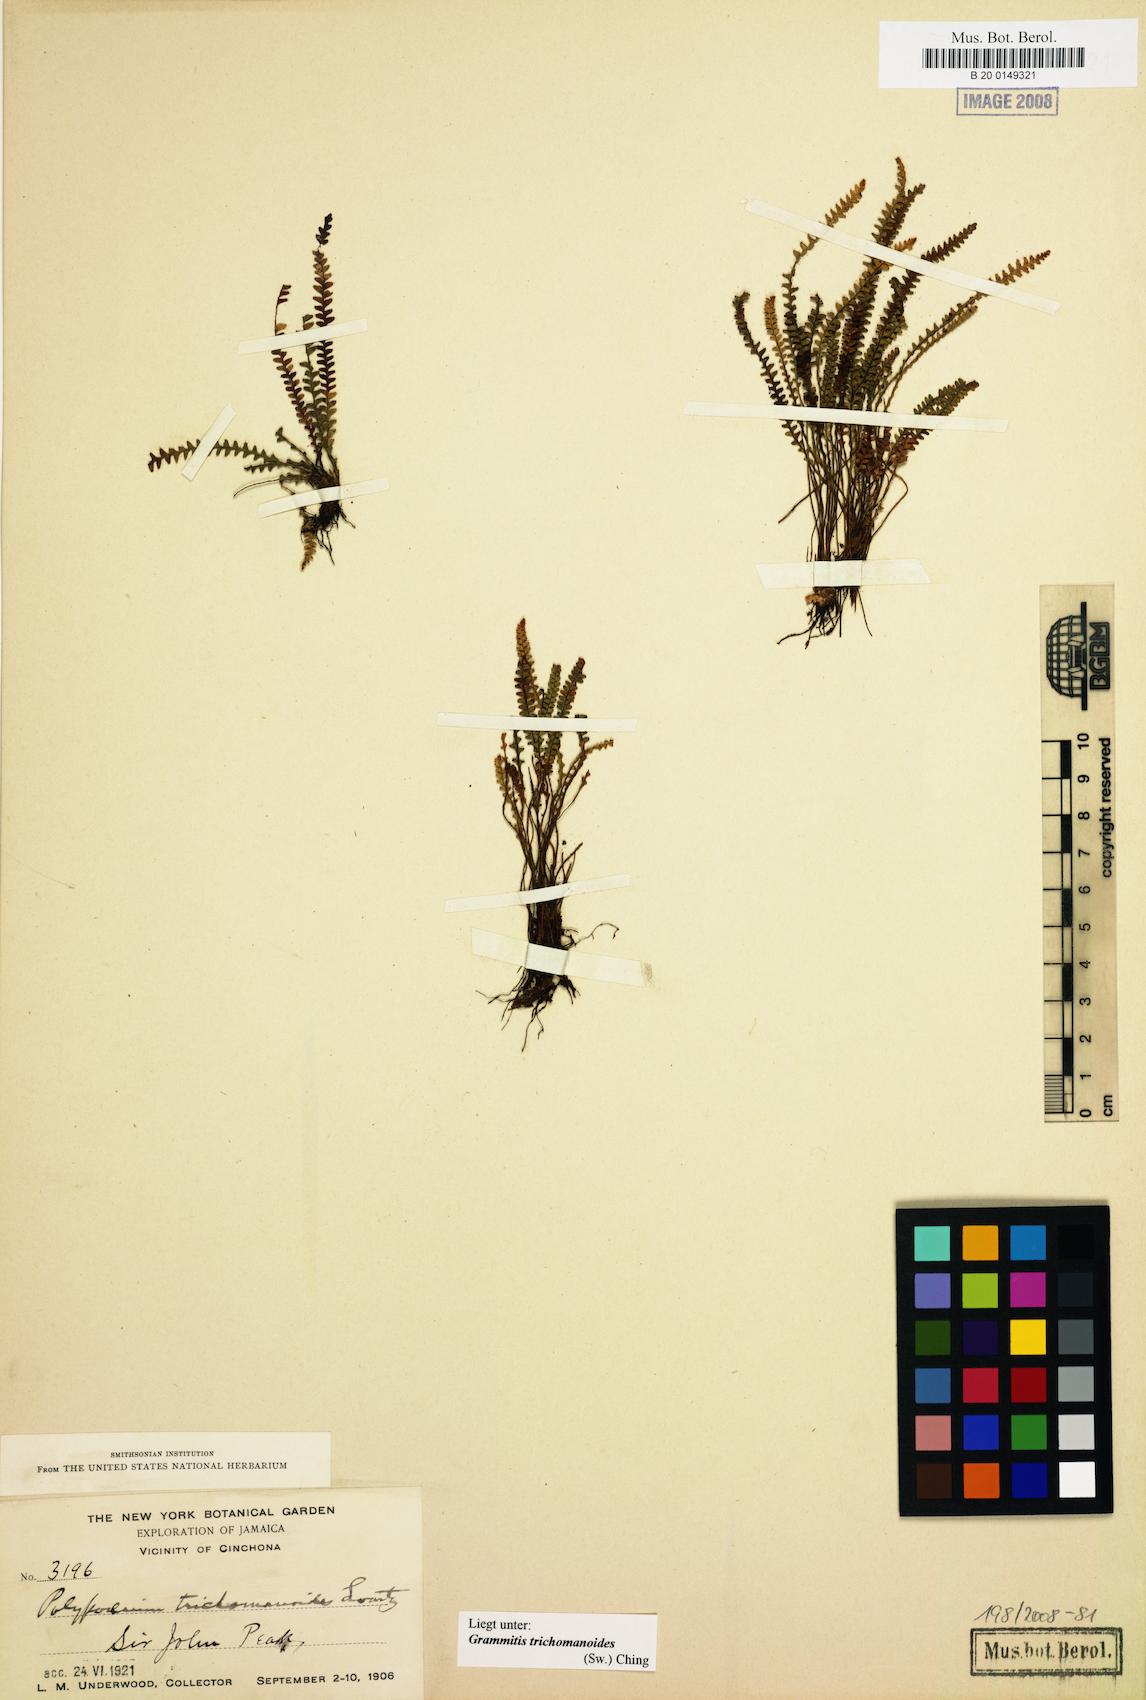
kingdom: Plantae
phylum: Tracheophyta
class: Polypodiopsida
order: Polypodiales
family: Polypodiaceae
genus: Moranopteris
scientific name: Moranopteris trichomanoides
